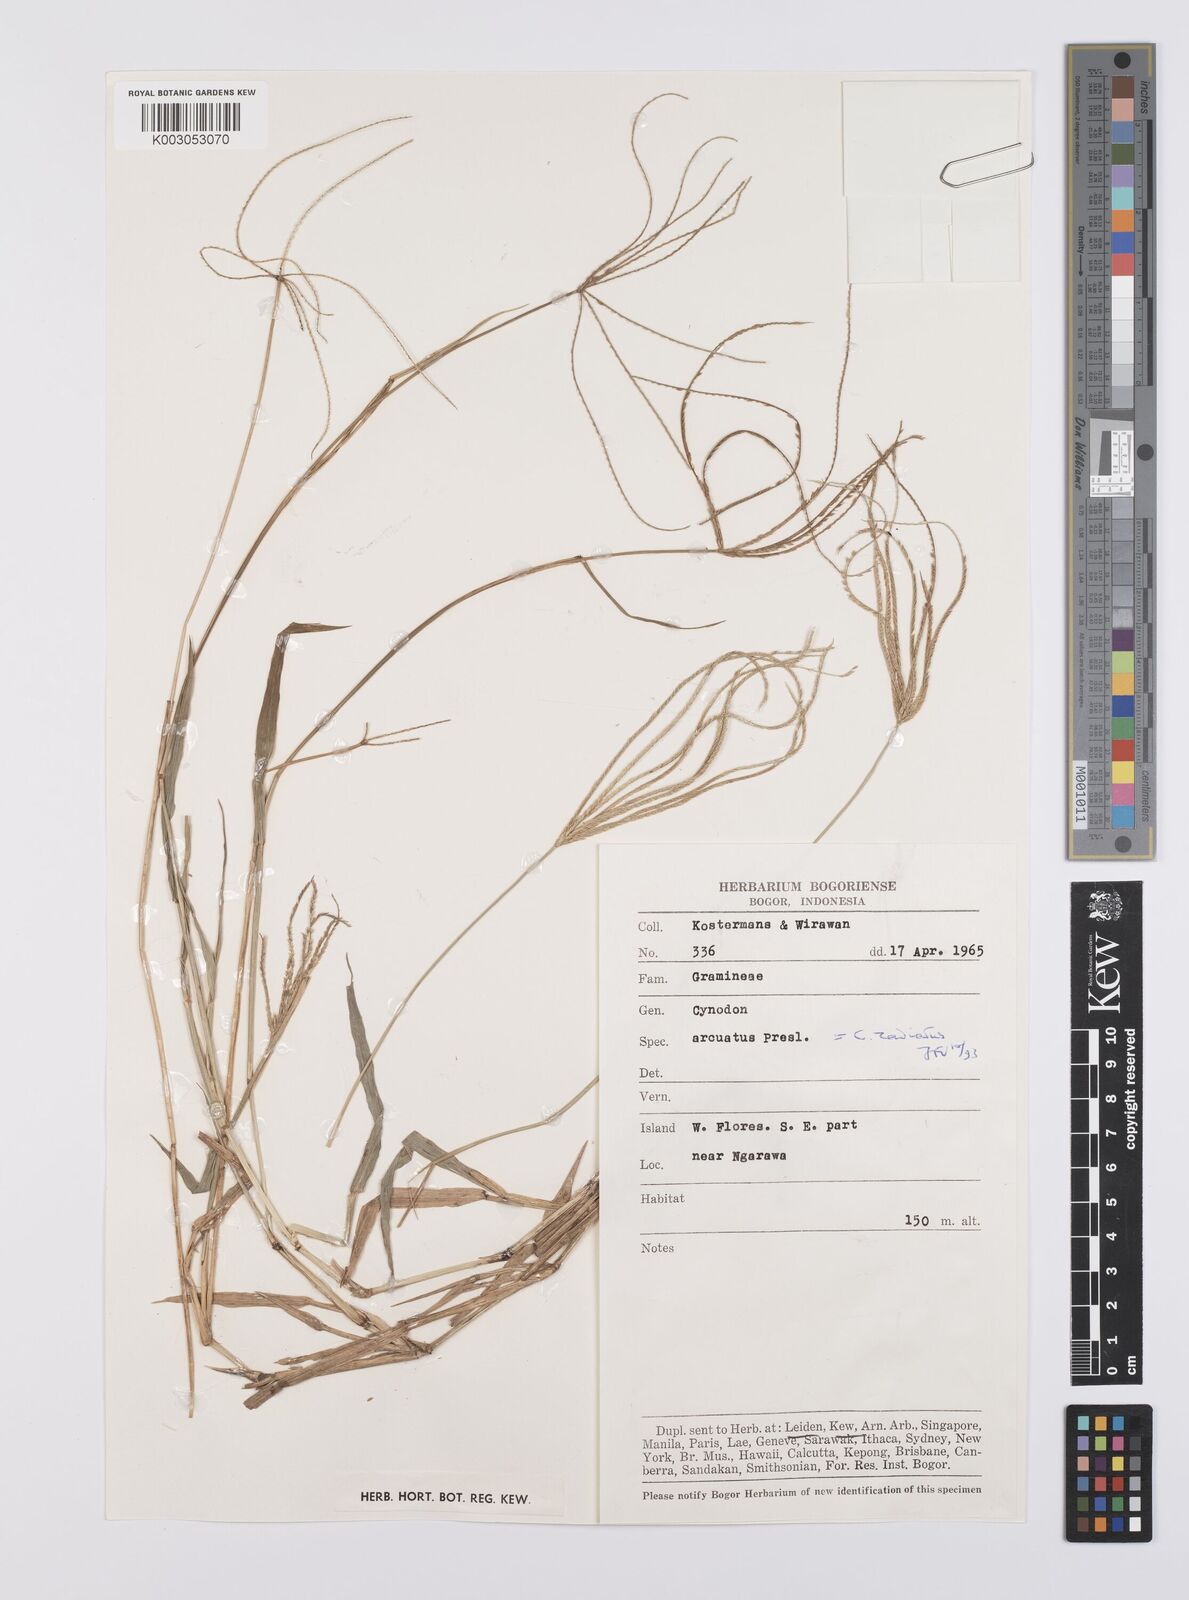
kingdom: Plantae
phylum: Tracheophyta
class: Liliopsida
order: Poales
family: Poaceae
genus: Cynodon
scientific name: Cynodon radiatus
